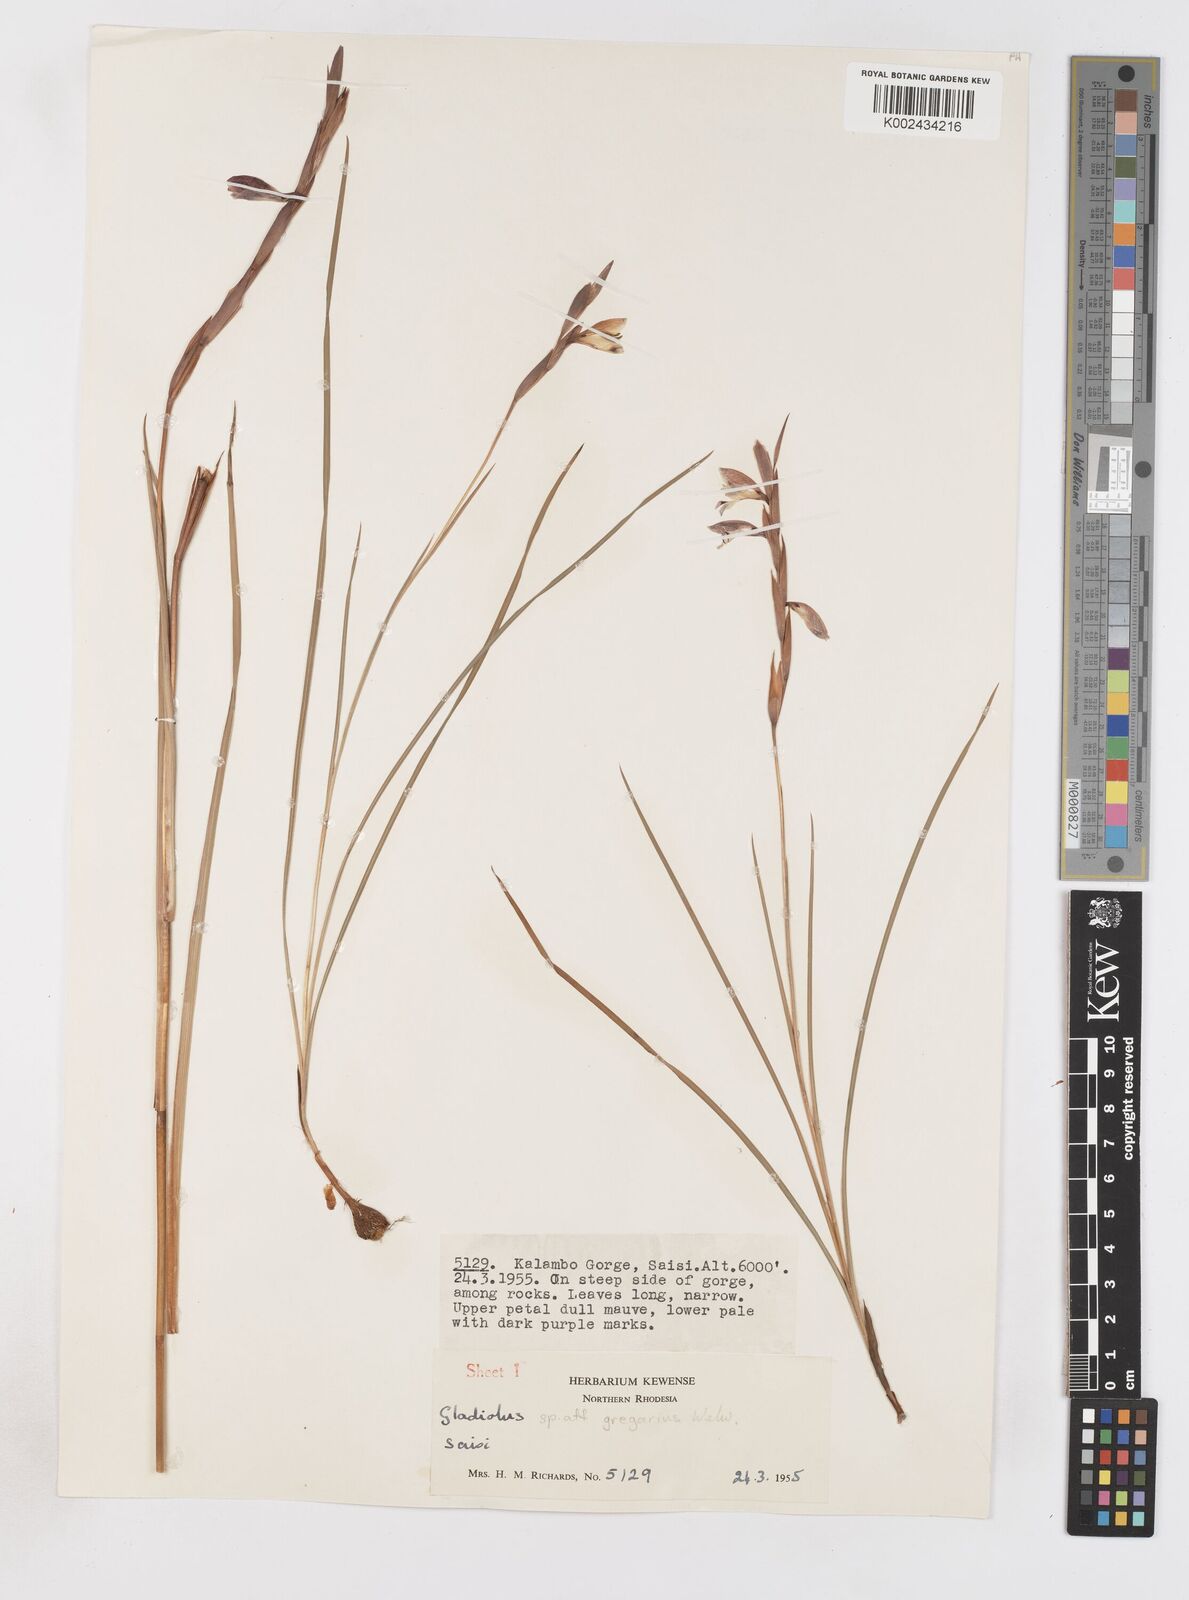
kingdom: Plantae
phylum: Tracheophyta
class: Liliopsida
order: Asparagales
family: Iridaceae
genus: Gladiolus
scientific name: Gladiolus gregarius
